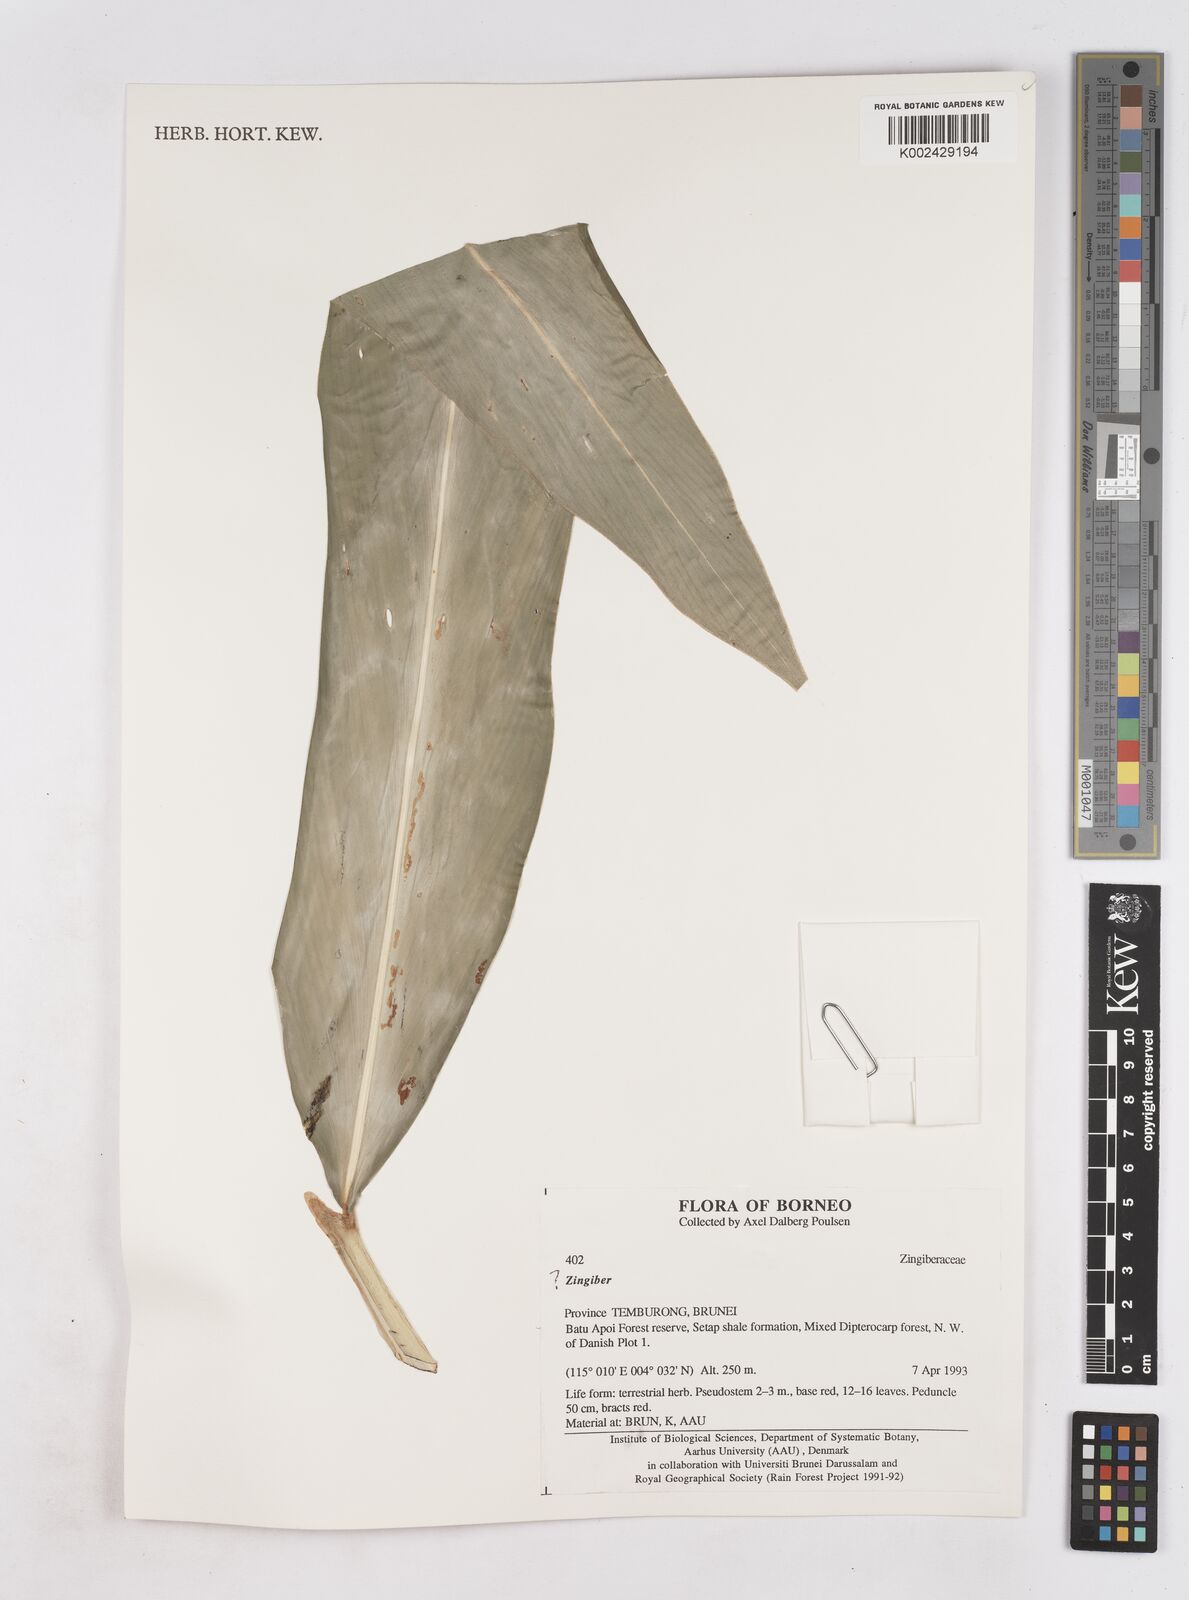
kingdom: Plantae
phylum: Tracheophyta
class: Liliopsida
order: Zingiberales
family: Zingiberaceae
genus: Zingiber
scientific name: Zingiber
